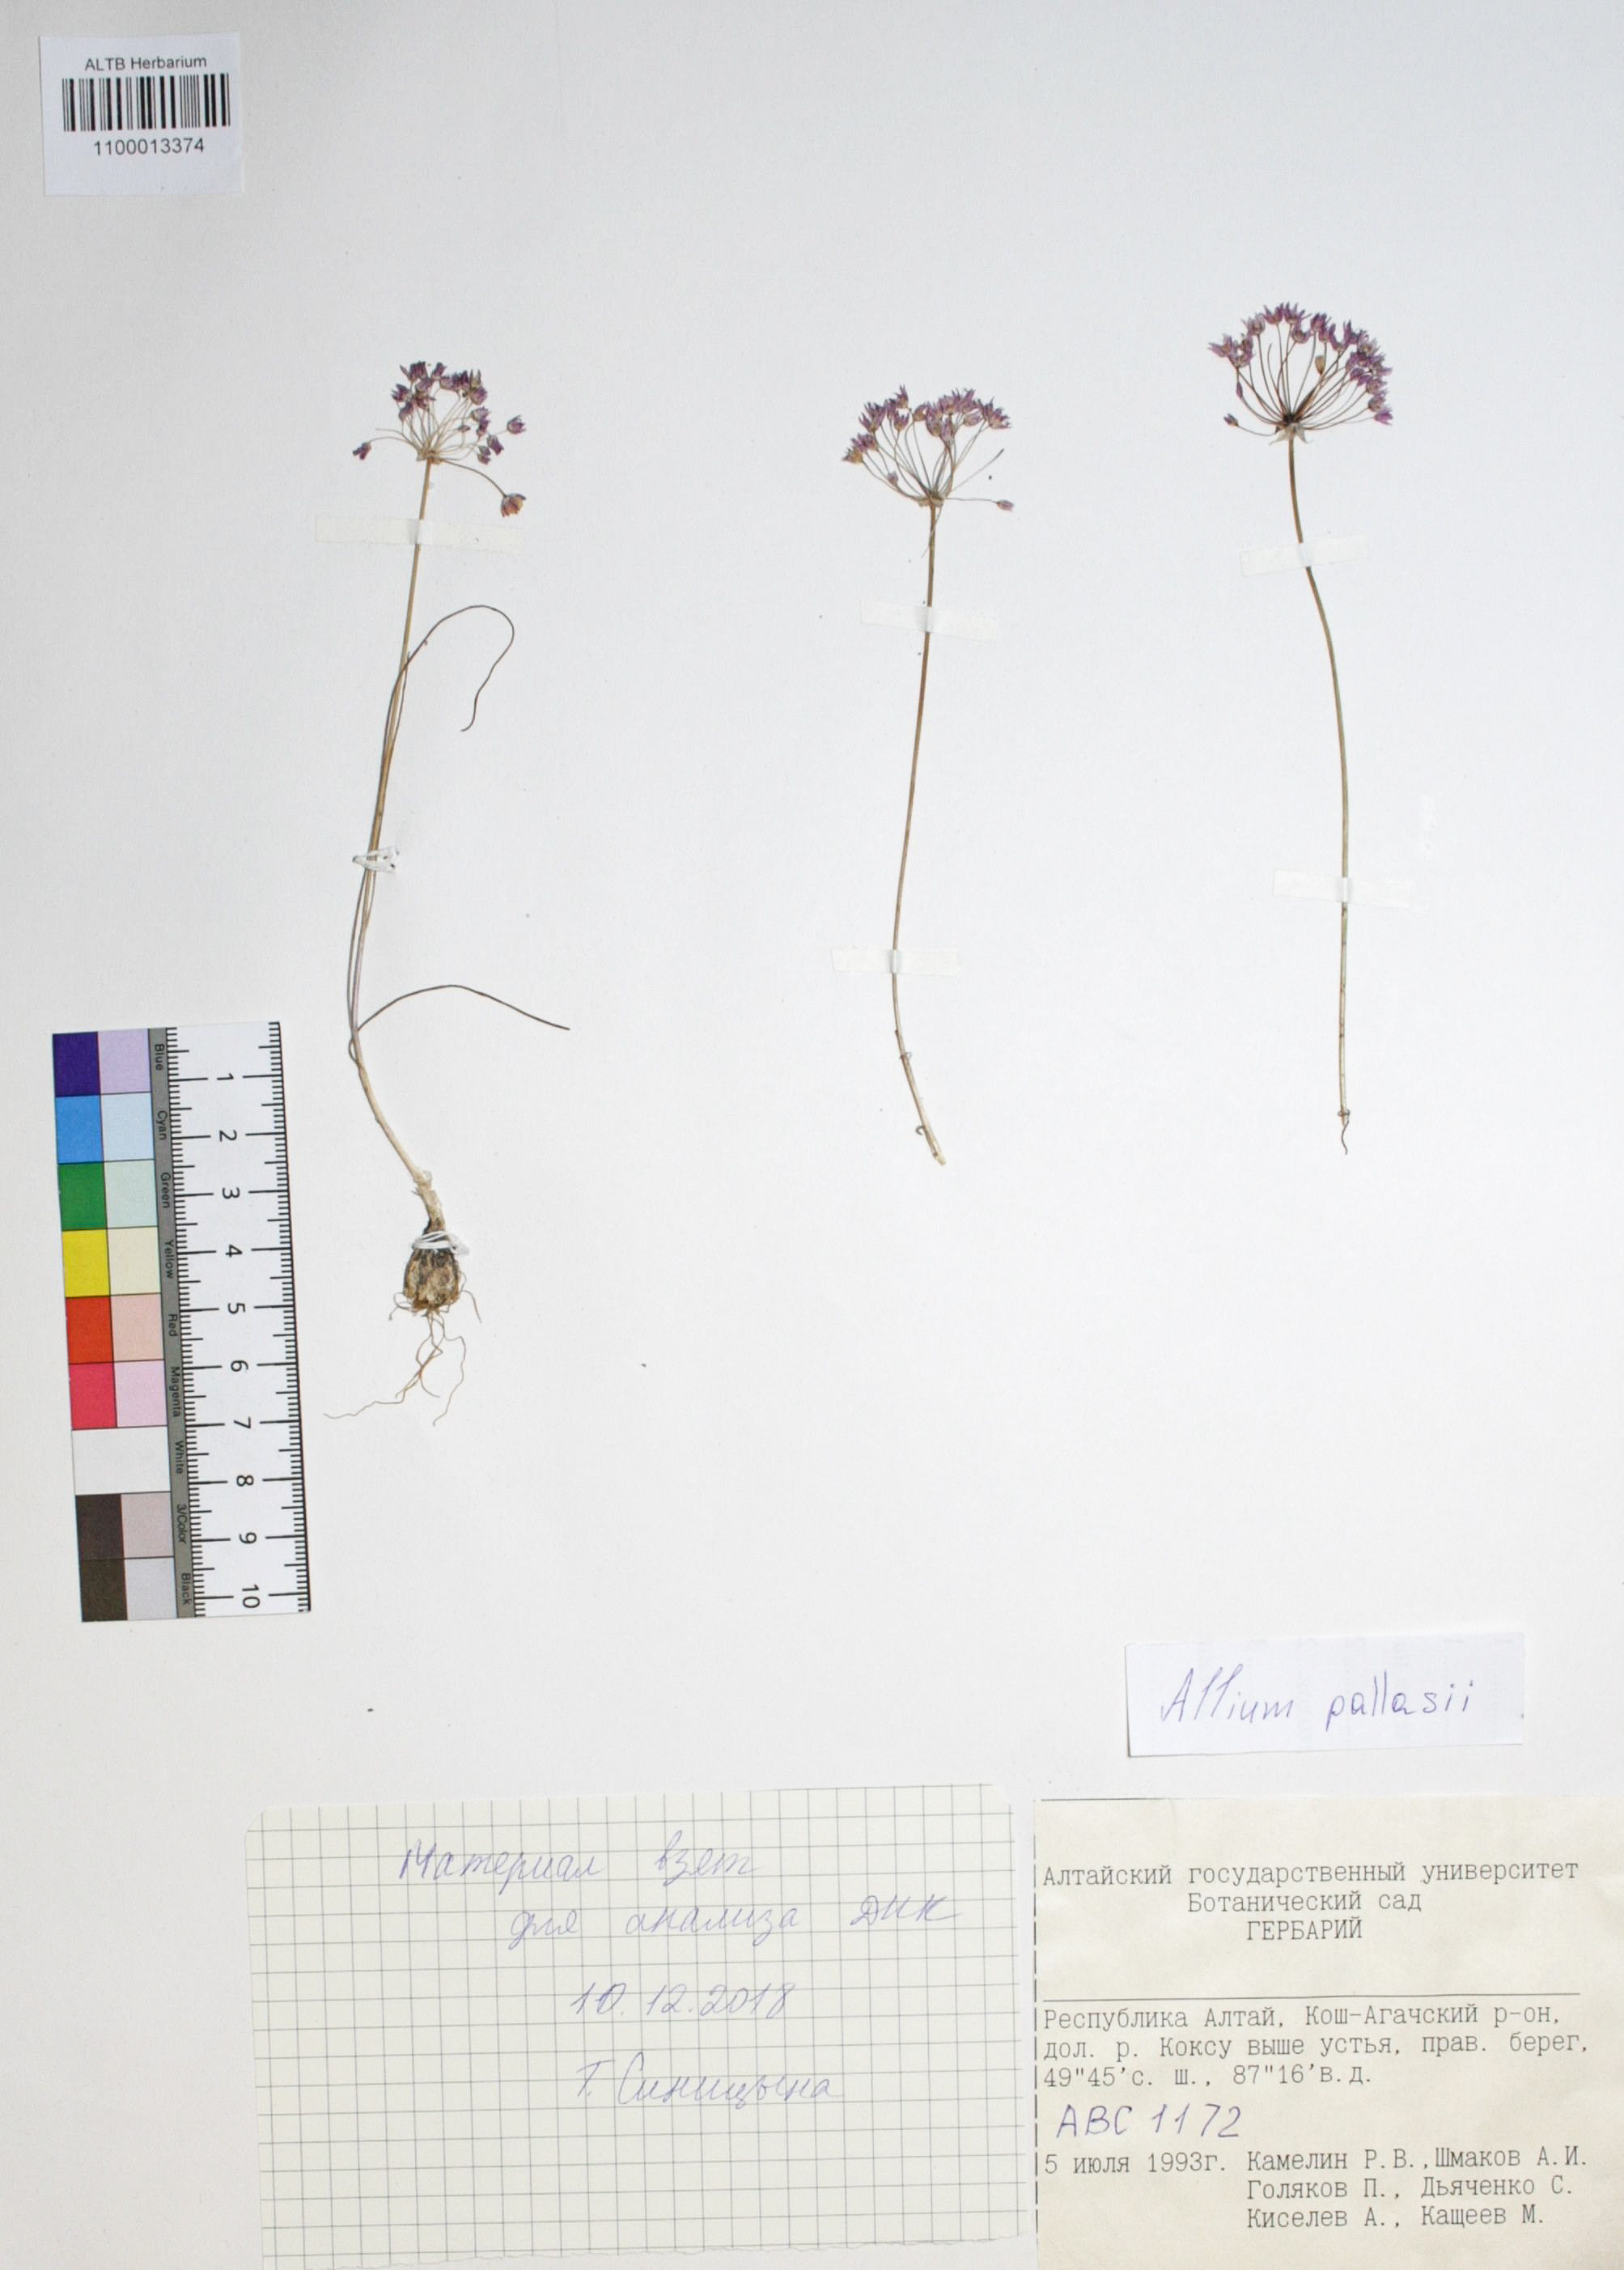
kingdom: Plantae
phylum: Tracheophyta
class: Liliopsida
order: Asparagales
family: Amaryllidaceae
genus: Allium
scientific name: Allium pallasii
